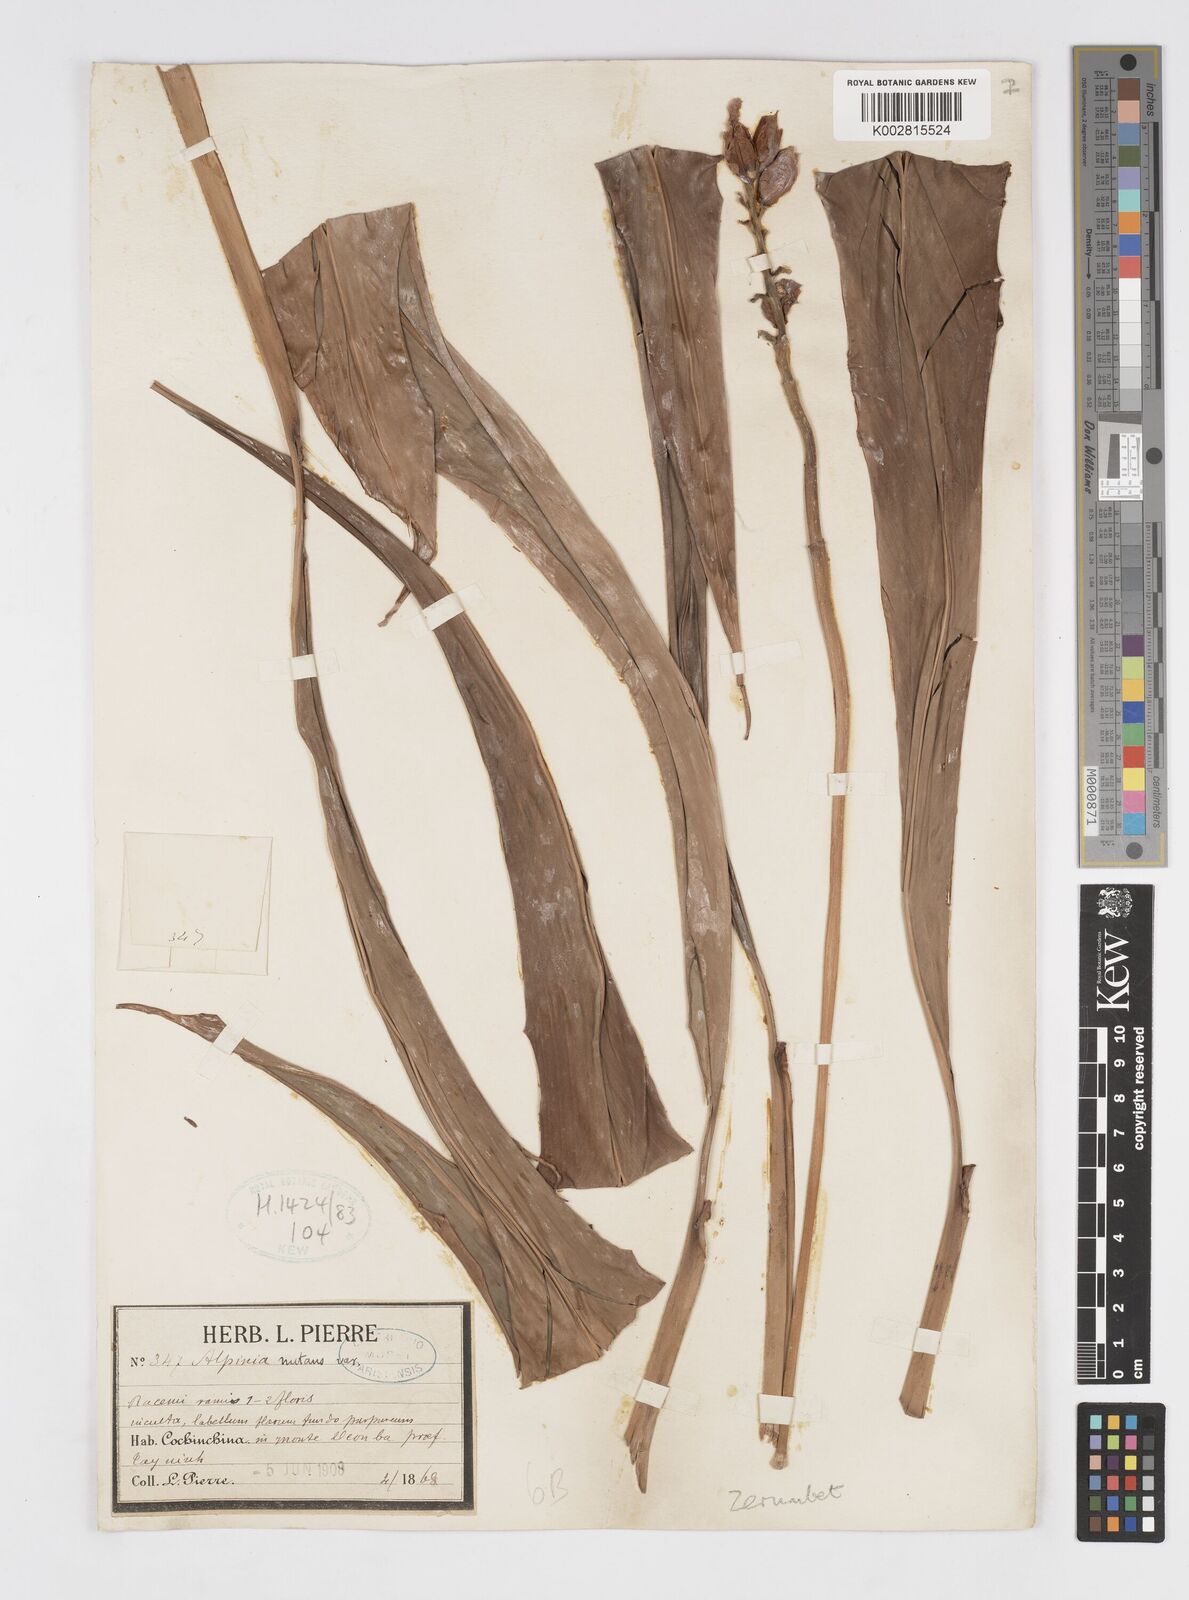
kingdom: Plantae
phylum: Tracheophyta
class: Liliopsida
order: Zingiberales
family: Zingiberaceae
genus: Alpinia
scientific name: Alpinia zerumbet
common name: Shellplant
